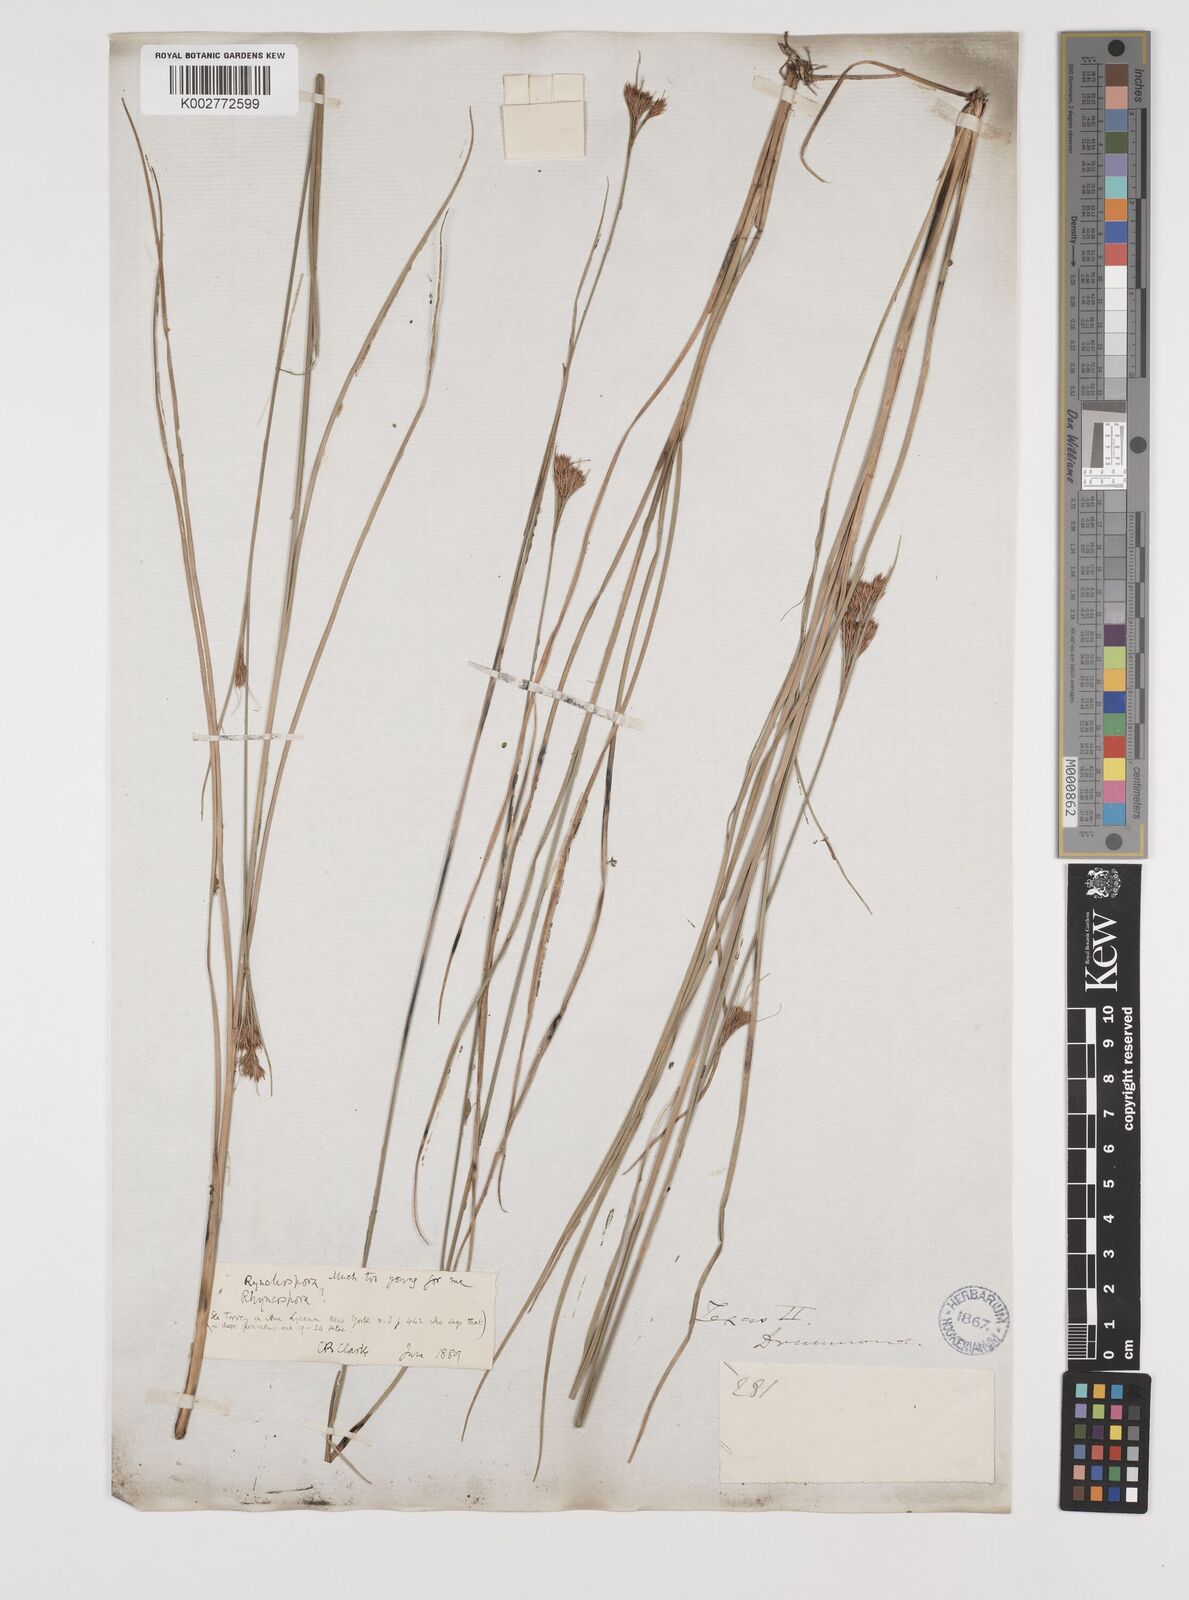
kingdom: Plantae
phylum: Tracheophyta
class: Liliopsida
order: Poales
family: Cyperaceae
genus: Rhynchospora
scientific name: Rhynchospora alba
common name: White beak-sedge
